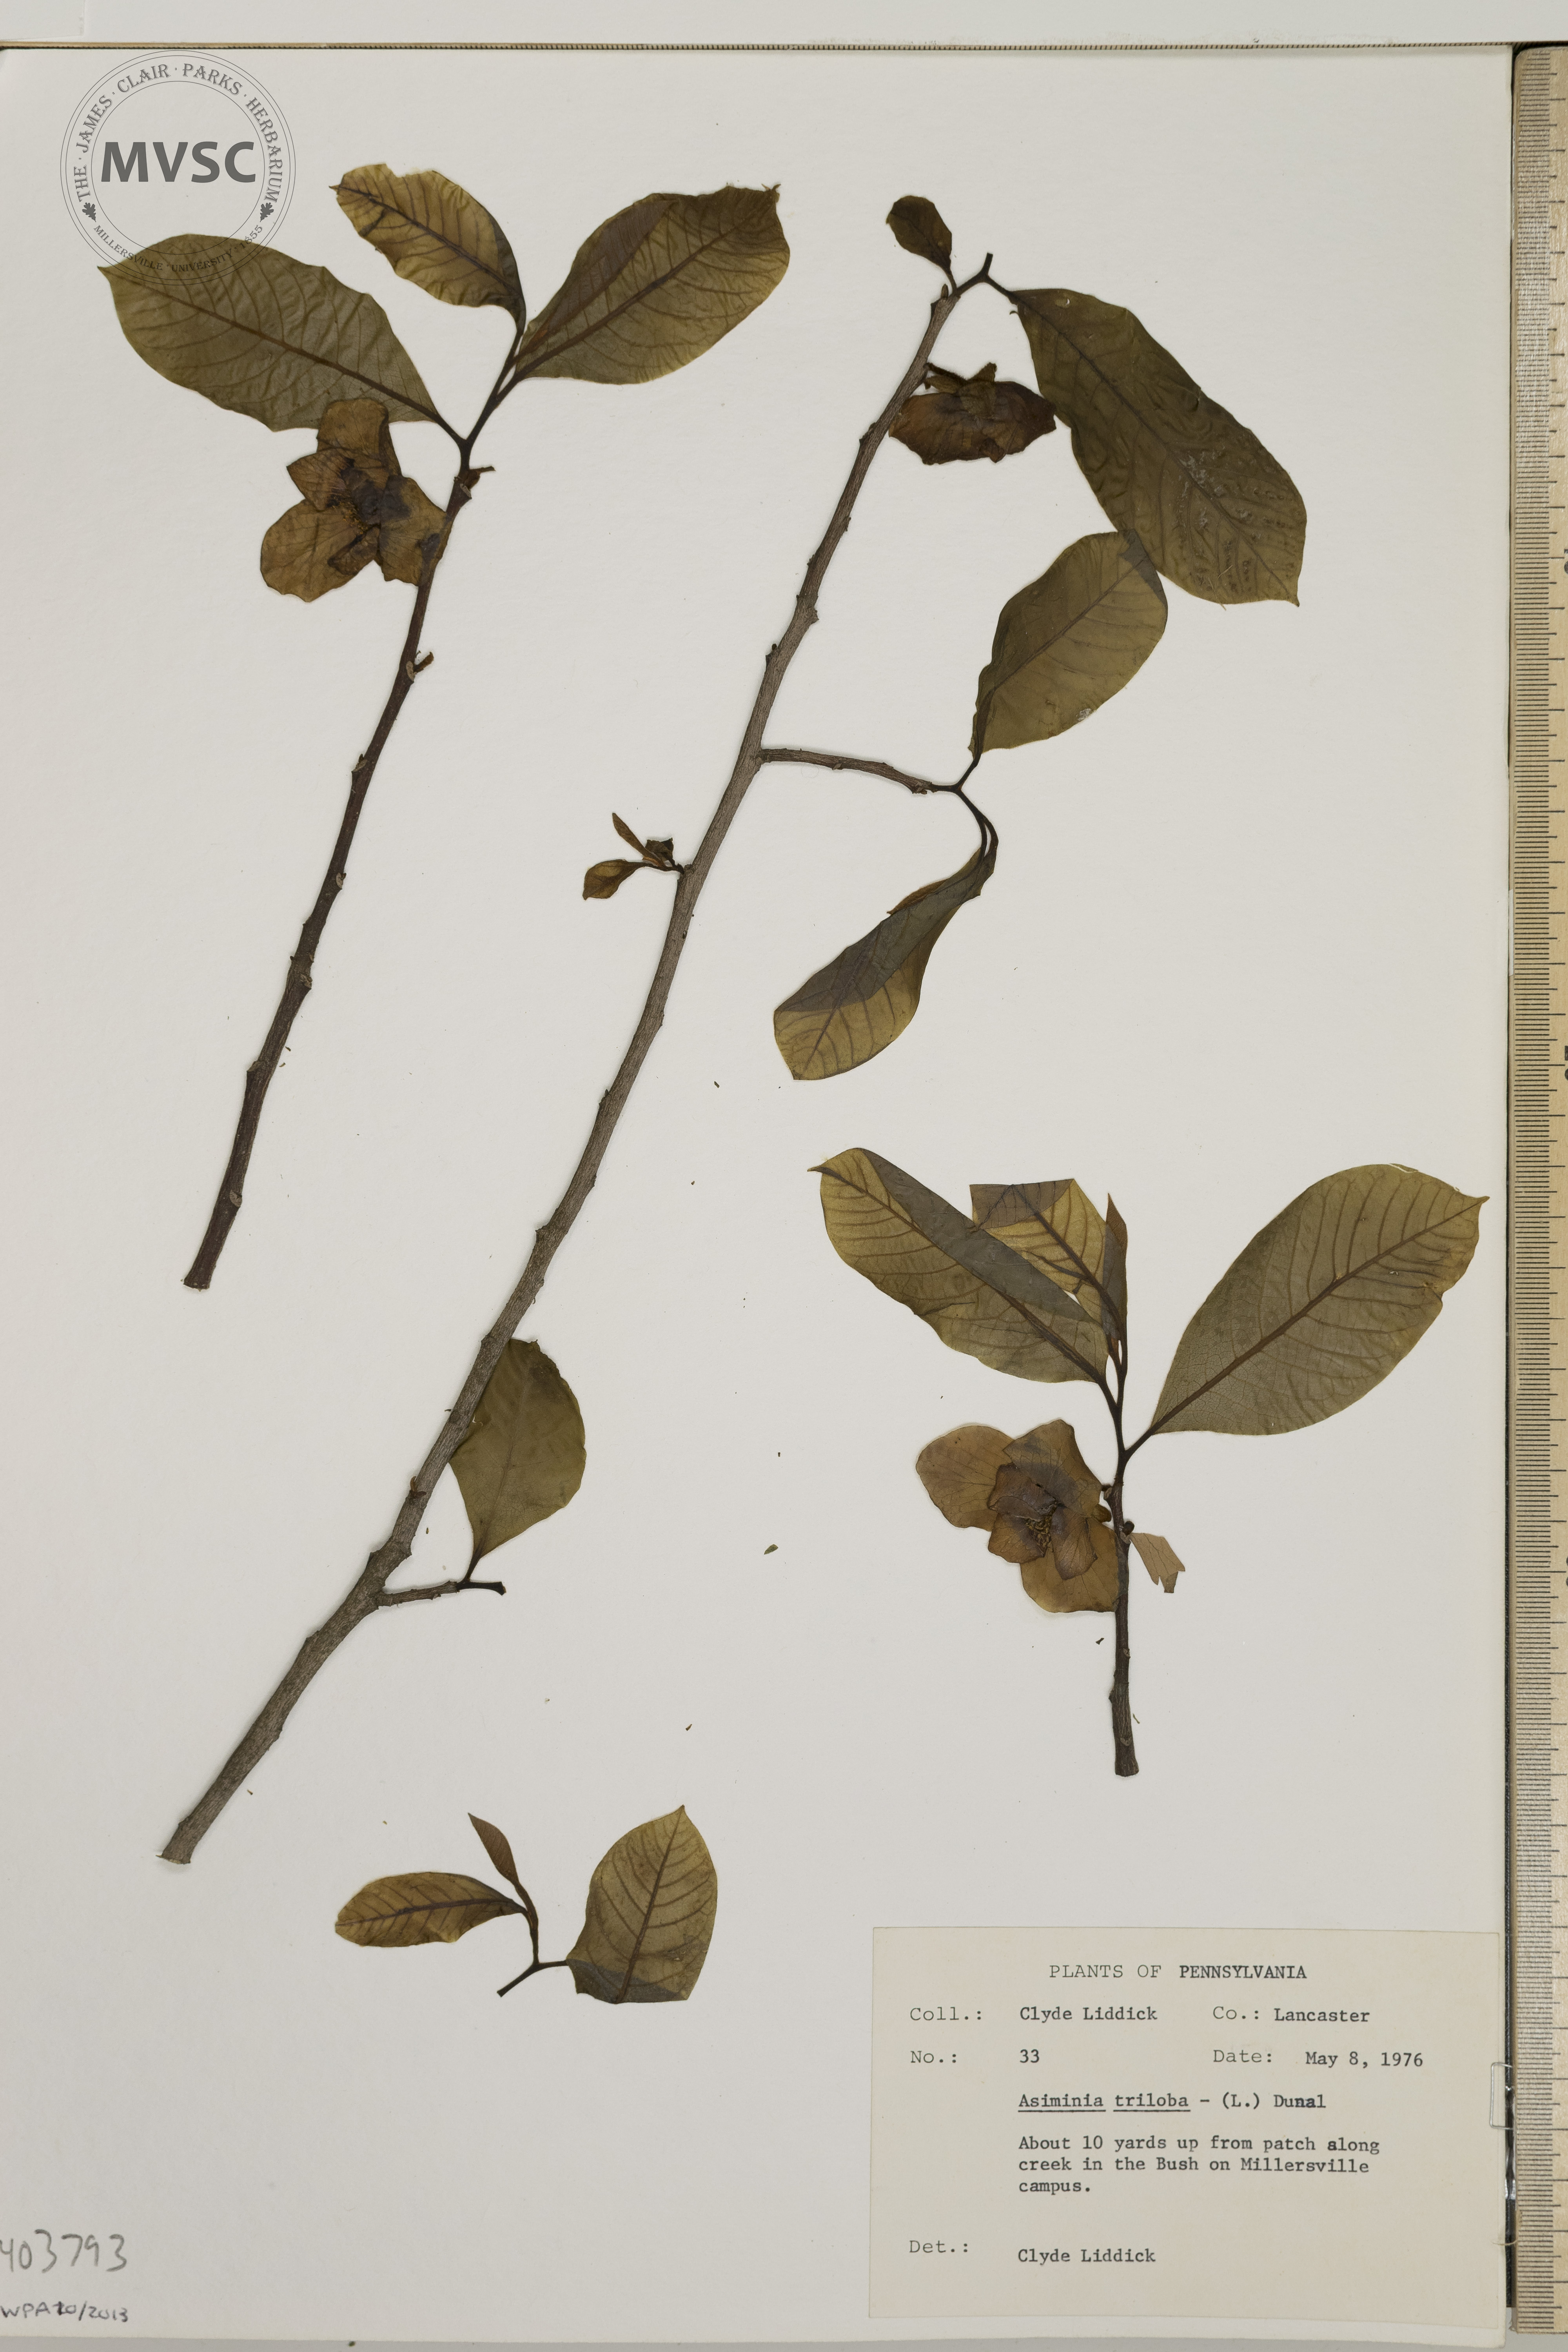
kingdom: Plantae
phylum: Tracheophyta
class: Magnoliopsida
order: Magnoliales
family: Annonaceae
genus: Asimina
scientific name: Asimina triloba
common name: Dog-banana
